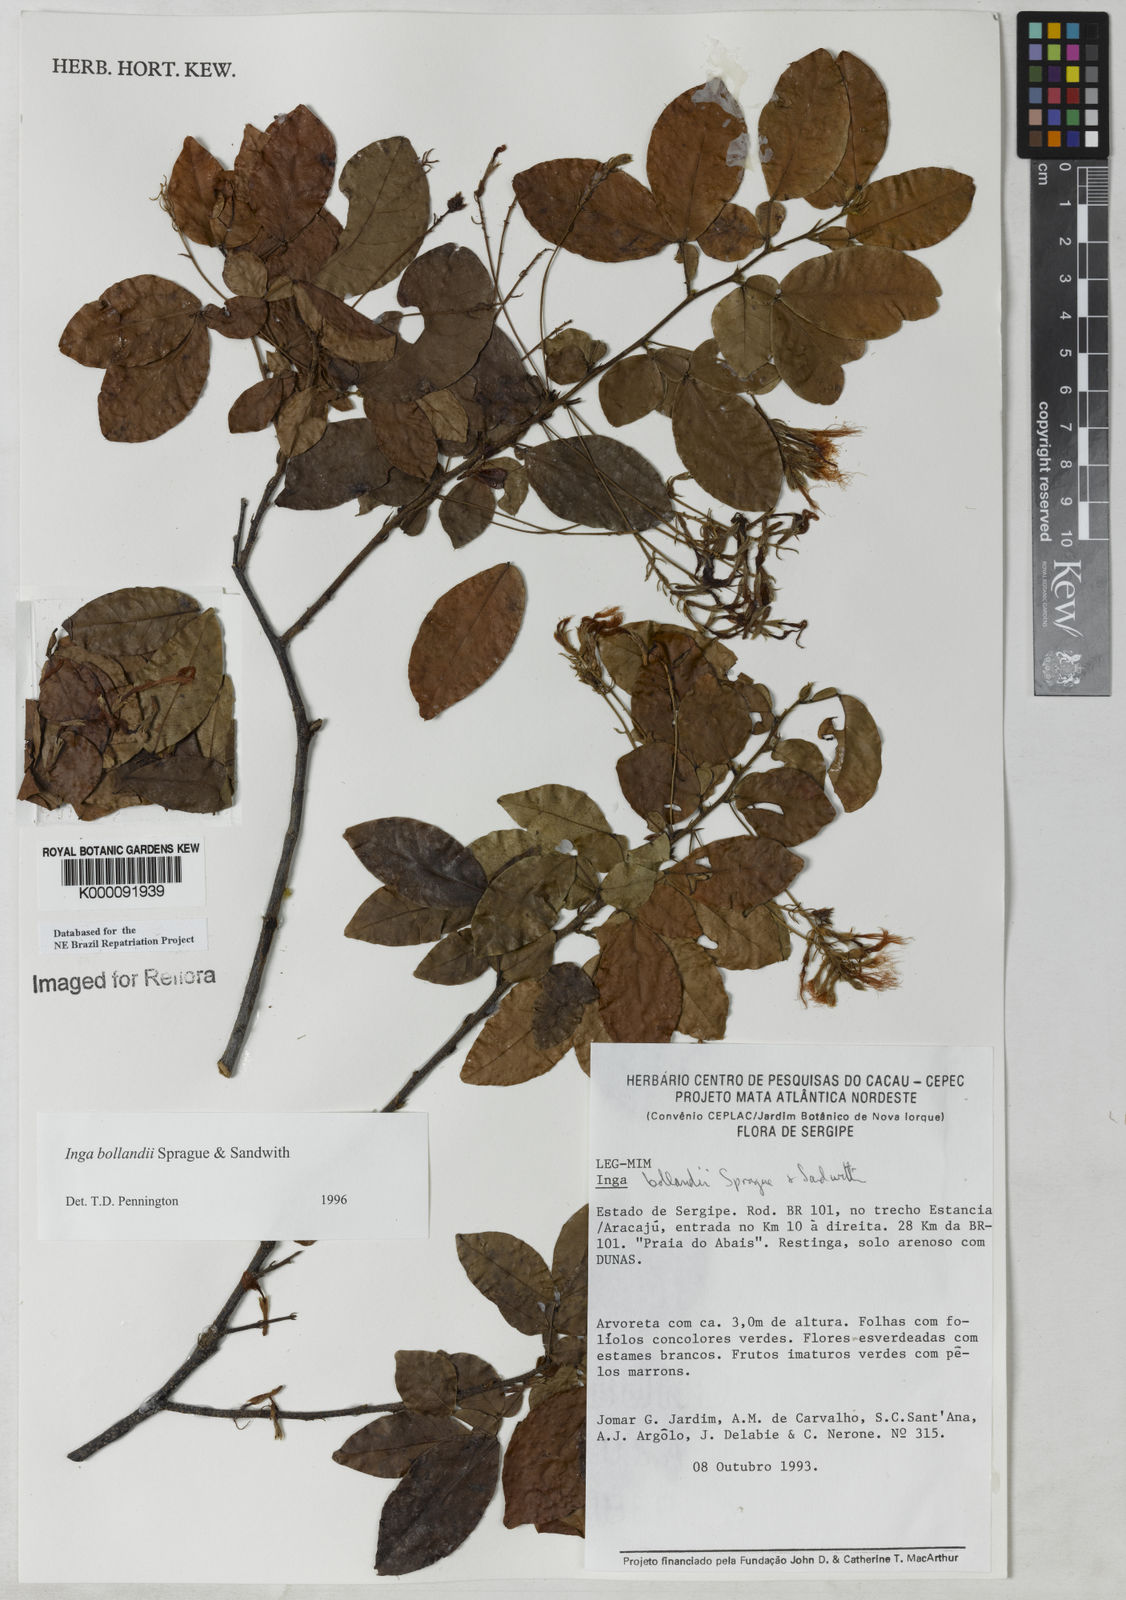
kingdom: Plantae
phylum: Tracheophyta
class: Magnoliopsida
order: Fabales
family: Fabaceae
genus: Inga
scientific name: Inga bollandii
